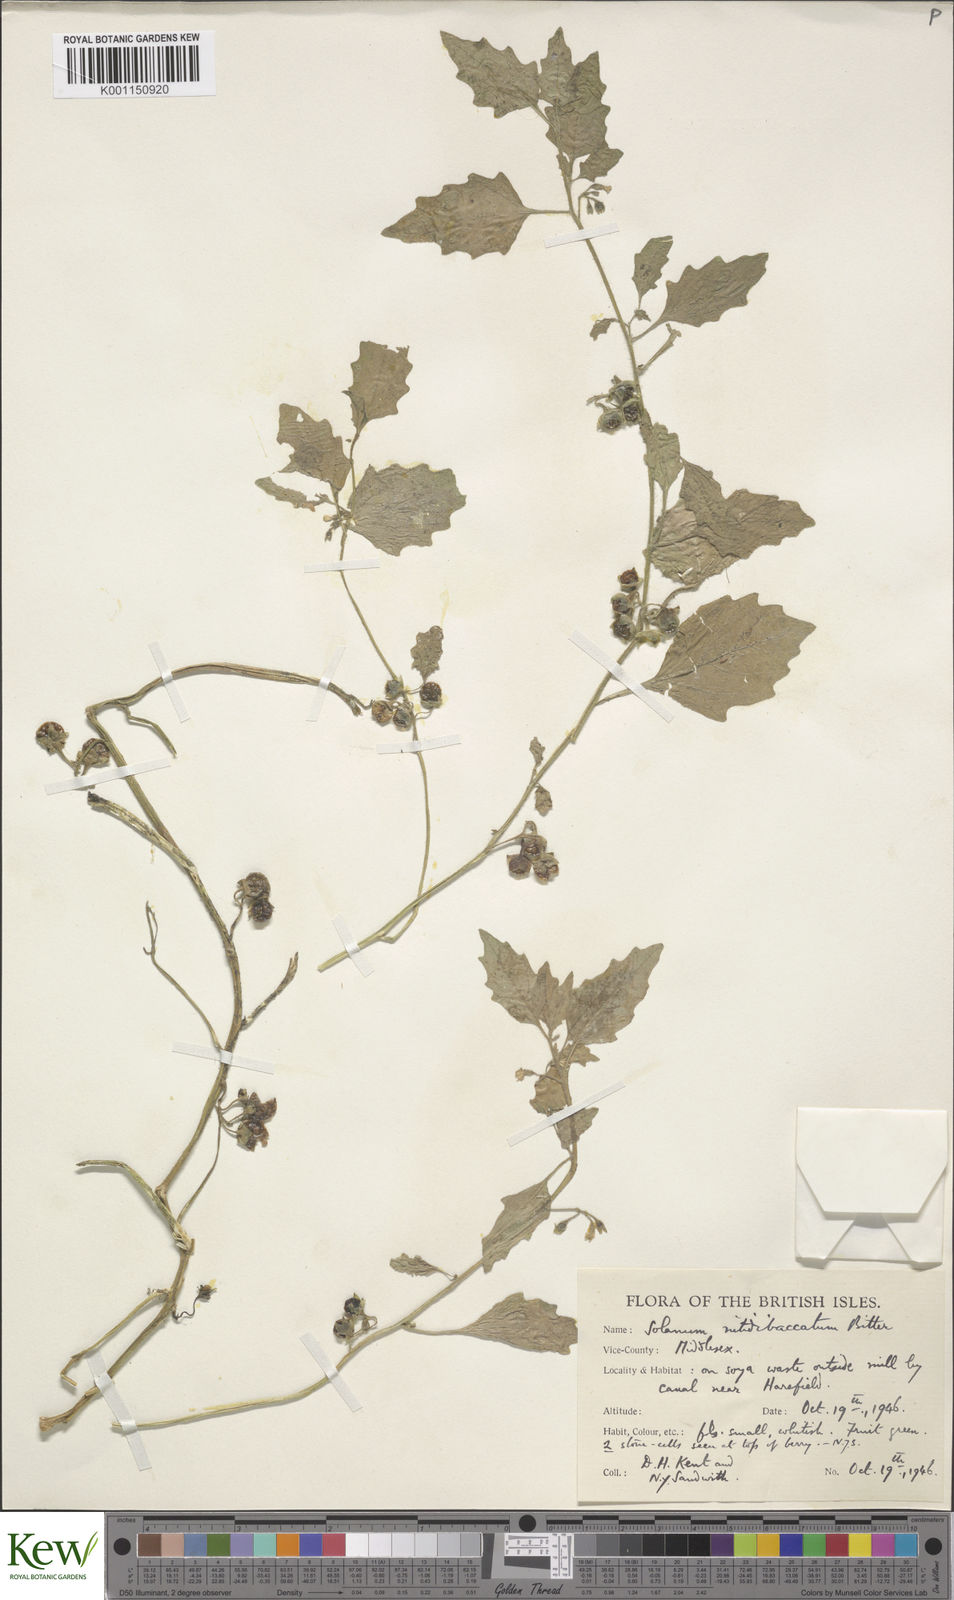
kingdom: Plantae
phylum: Tracheophyta
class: Magnoliopsida
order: Solanales
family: Solanaceae
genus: Solanum
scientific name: Solanum nitidibaccatum
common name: Hairy nightshade
